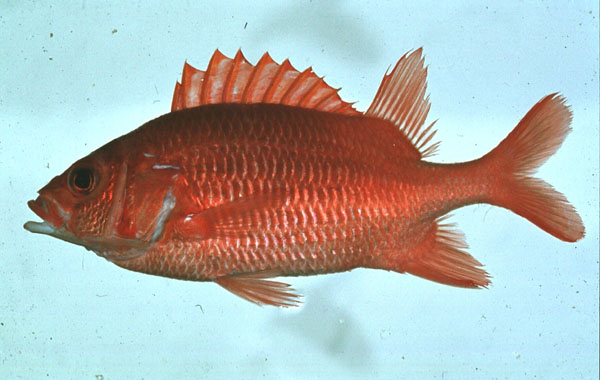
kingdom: Animalia
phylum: Chordata
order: Beryciformes
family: Holocentridae
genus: Sargocentron
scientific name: Sargocentron caudimaculatum
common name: Fanfin soldier
